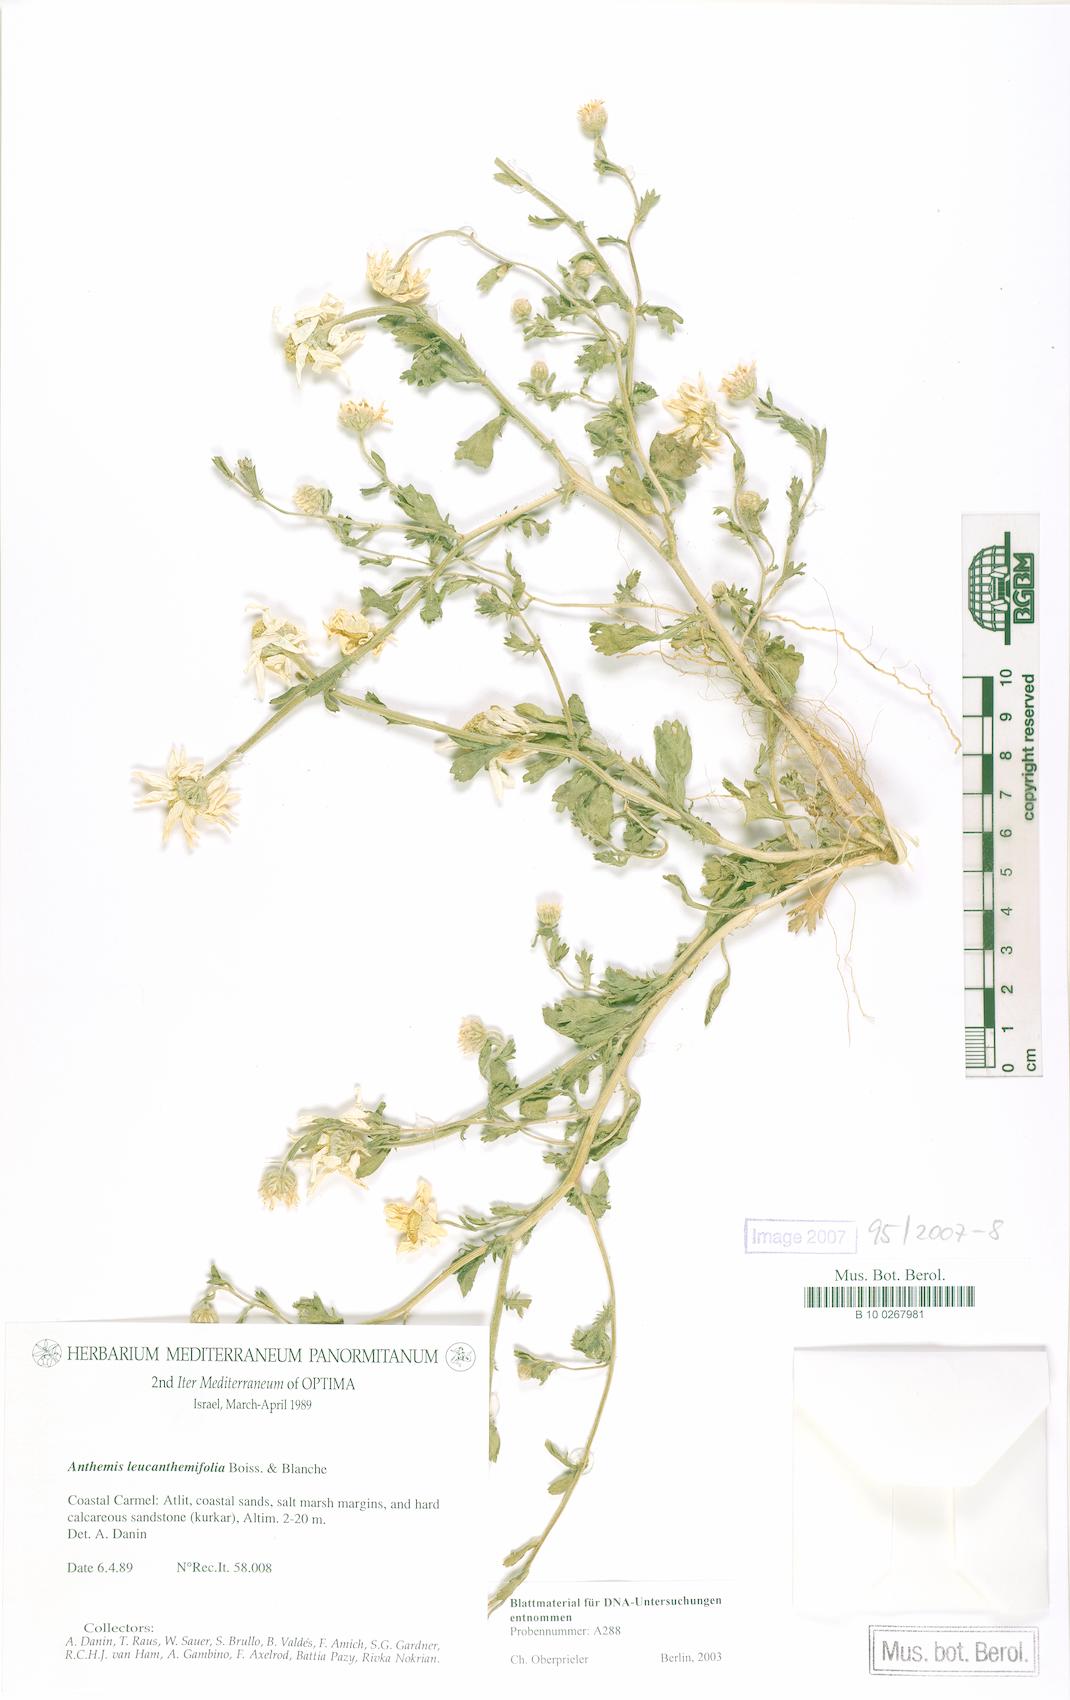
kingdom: Plantae
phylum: Tracheophyta
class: Magnoliopsida
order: Asterales
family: Asteraceae
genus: Anthemis
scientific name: Anthemis leucanthemifolia
